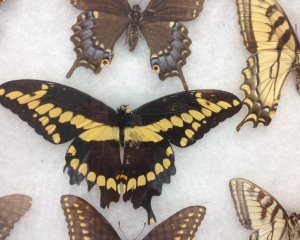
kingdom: Animalia
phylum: Arthropoda
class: Insecta
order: Lepidoptera
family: Papilionidae
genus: Papilio
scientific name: Papilio cresphontes
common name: Eastern Giant Swallowtail
